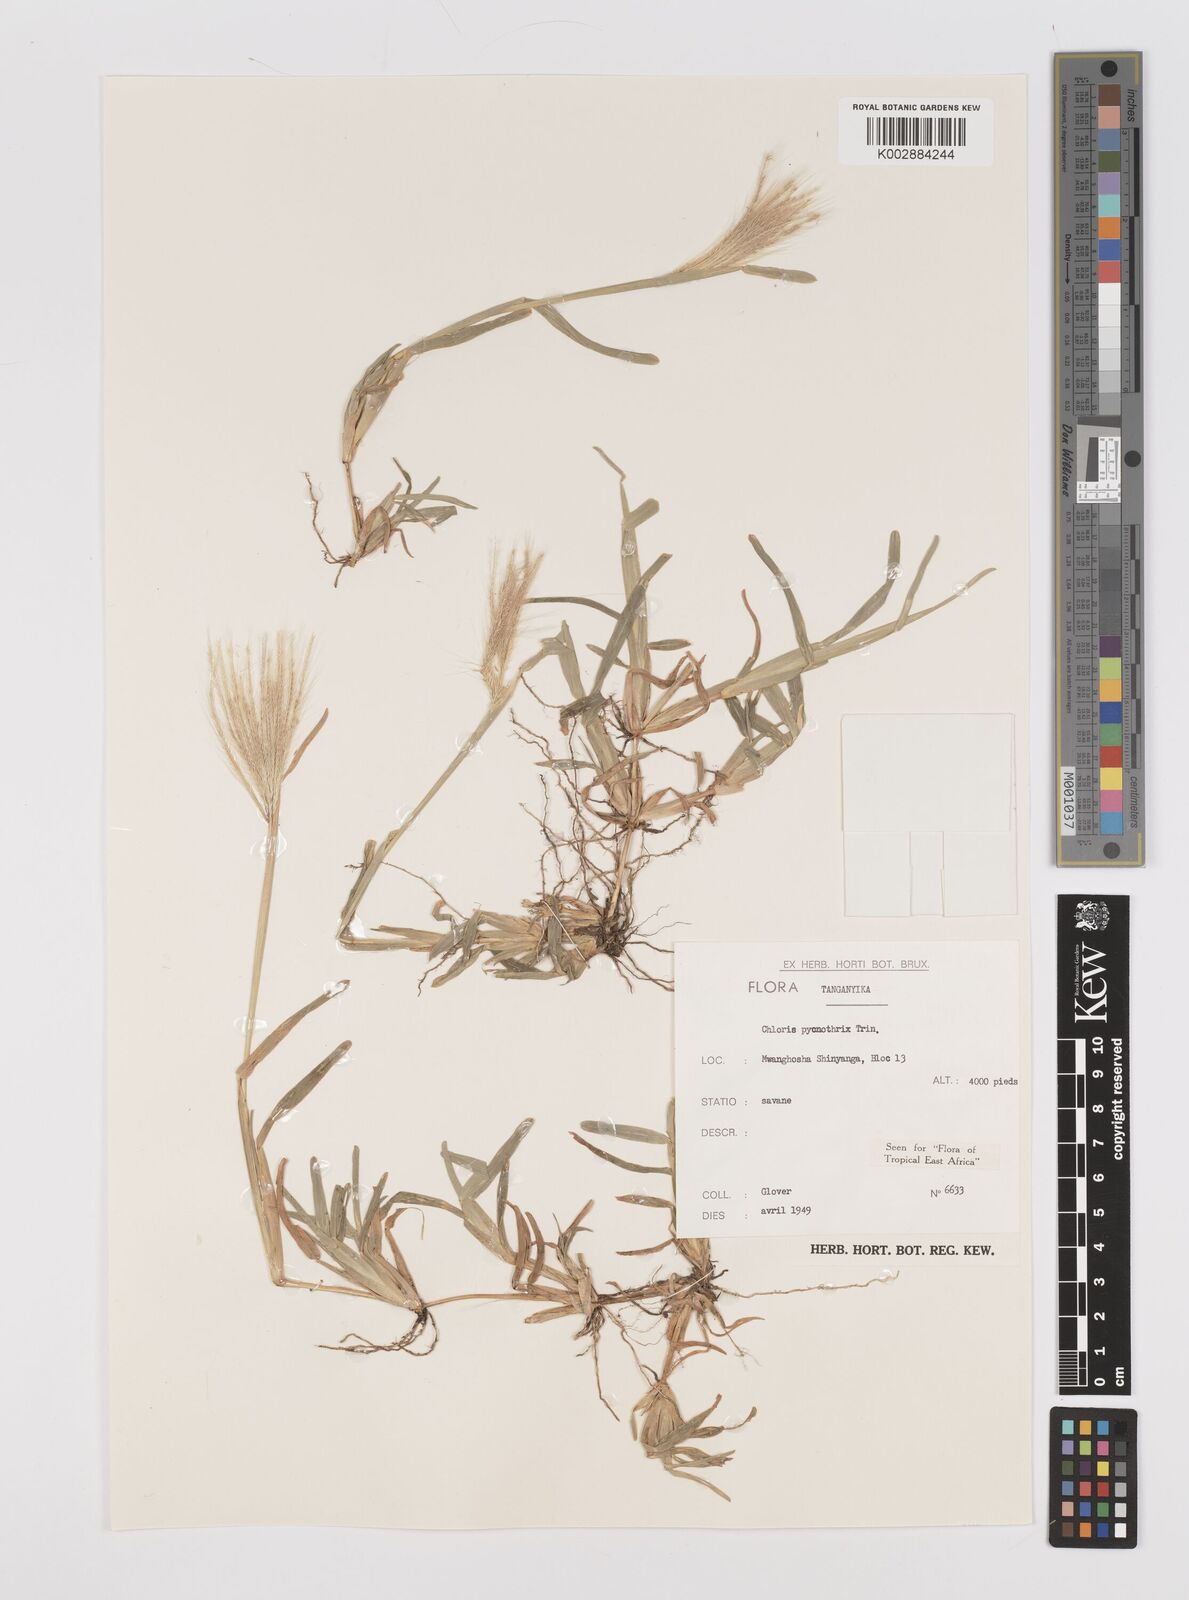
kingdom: Plantae
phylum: Tracheophyta
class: Liliopsida
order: Poales
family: Poaceae
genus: Chloris
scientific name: Chloris pycnothrix
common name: Spiderweb chloris
